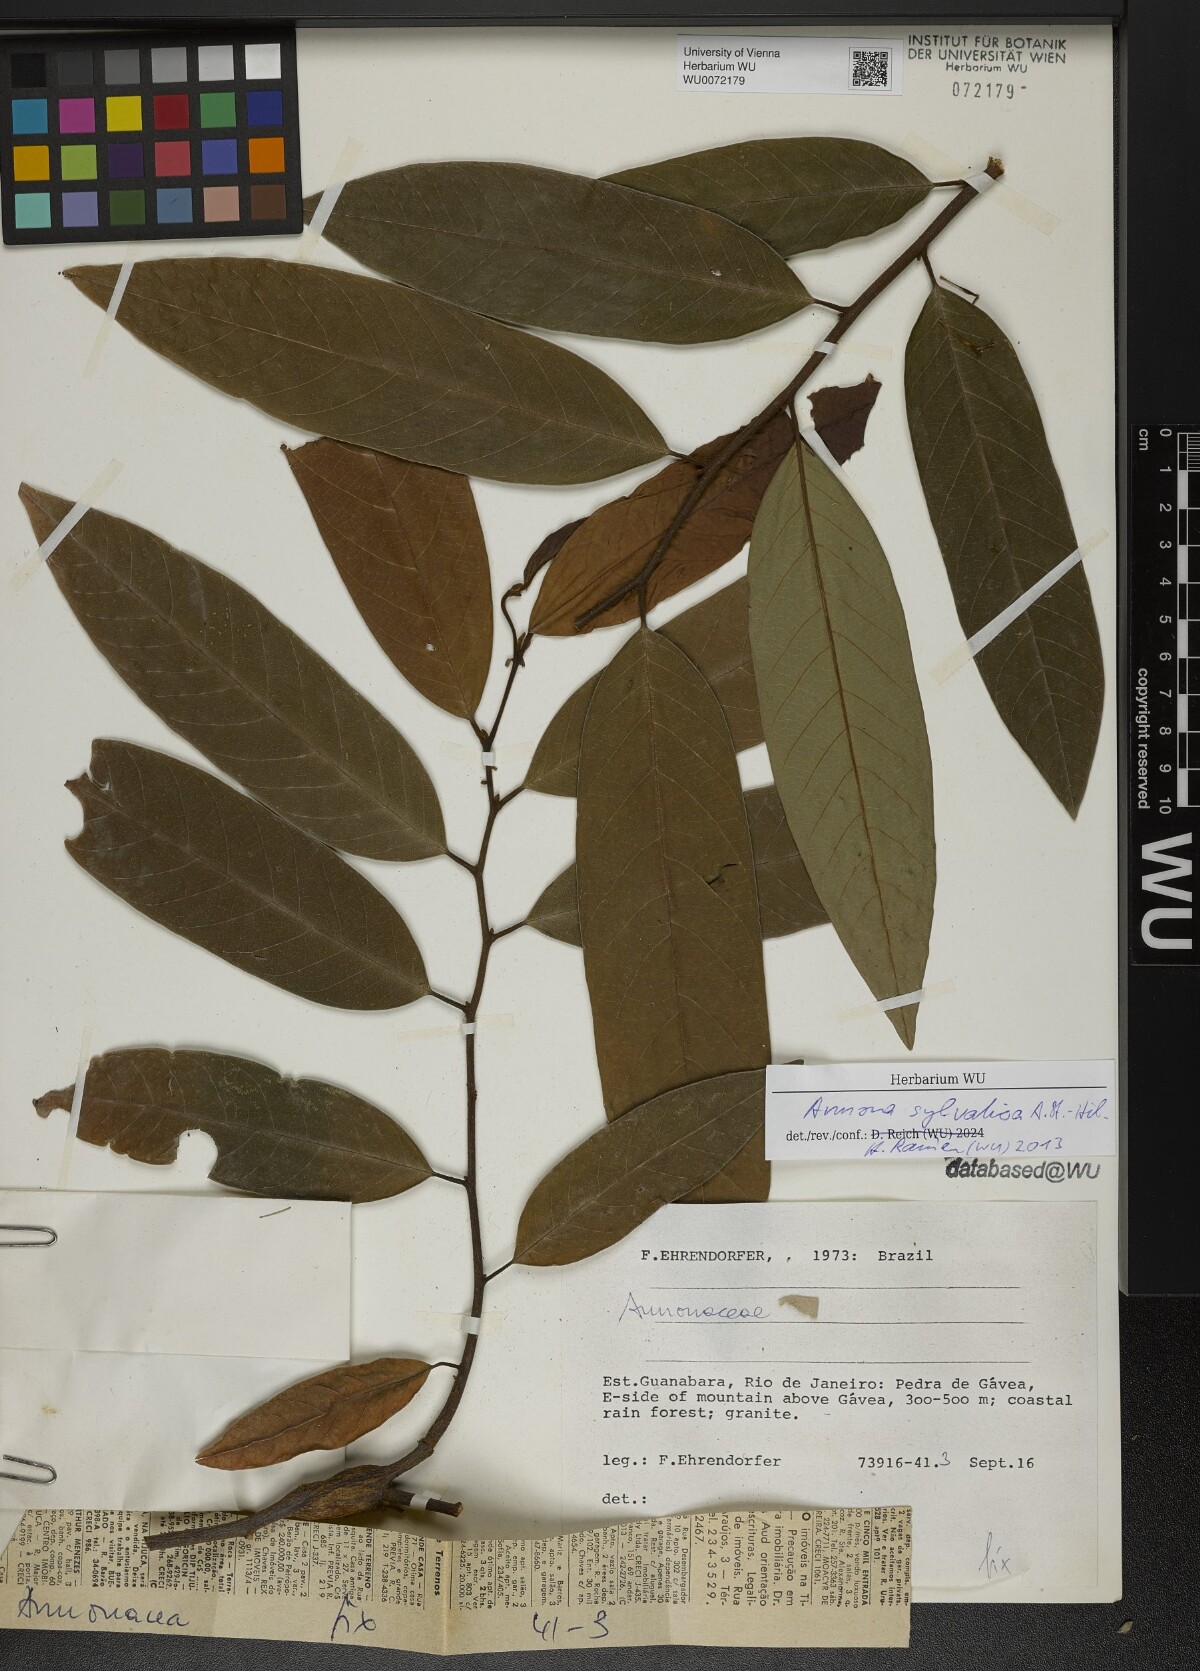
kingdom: Plantae
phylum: Tracheophyta
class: Magnoliopsida
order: Magnoliales
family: Annonaceae
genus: Annona
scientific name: Annona sylvatica
